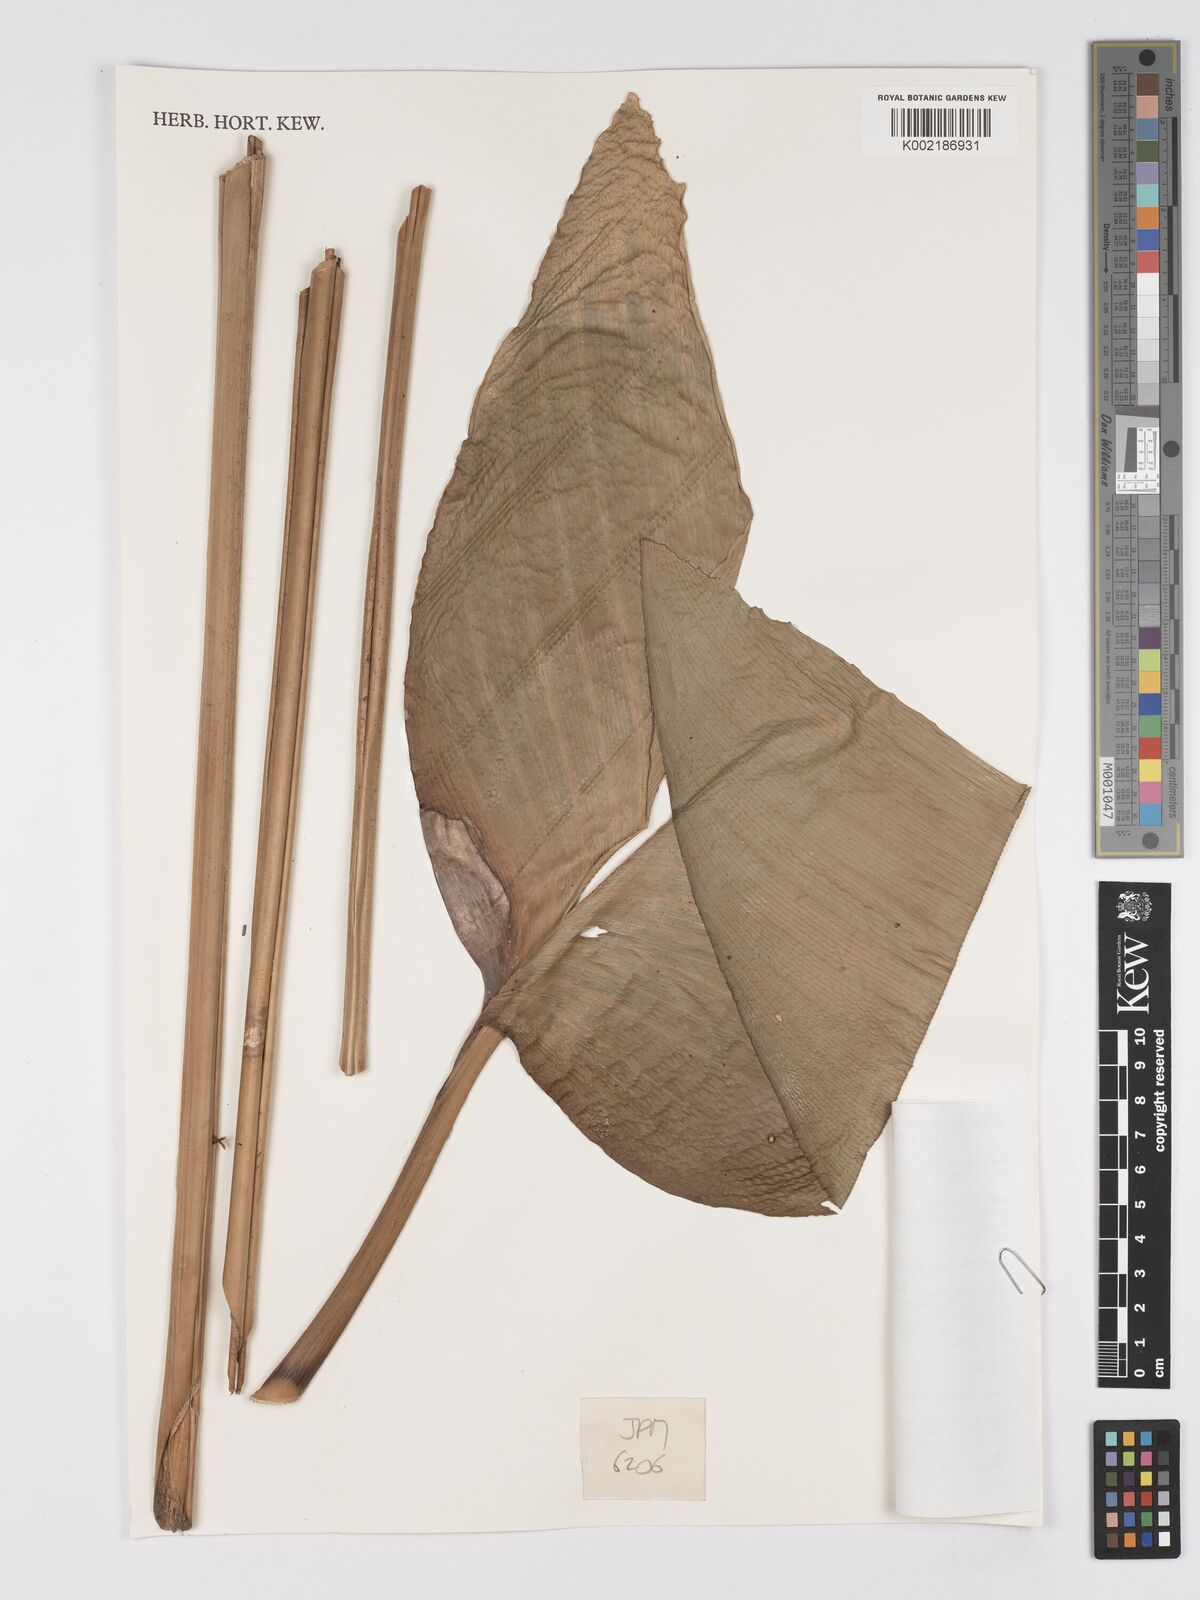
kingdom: Plantae
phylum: Tracheophyta
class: Liliopsida
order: Zingiberales
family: Marantaceae
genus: Phrynium
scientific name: Phrynium
